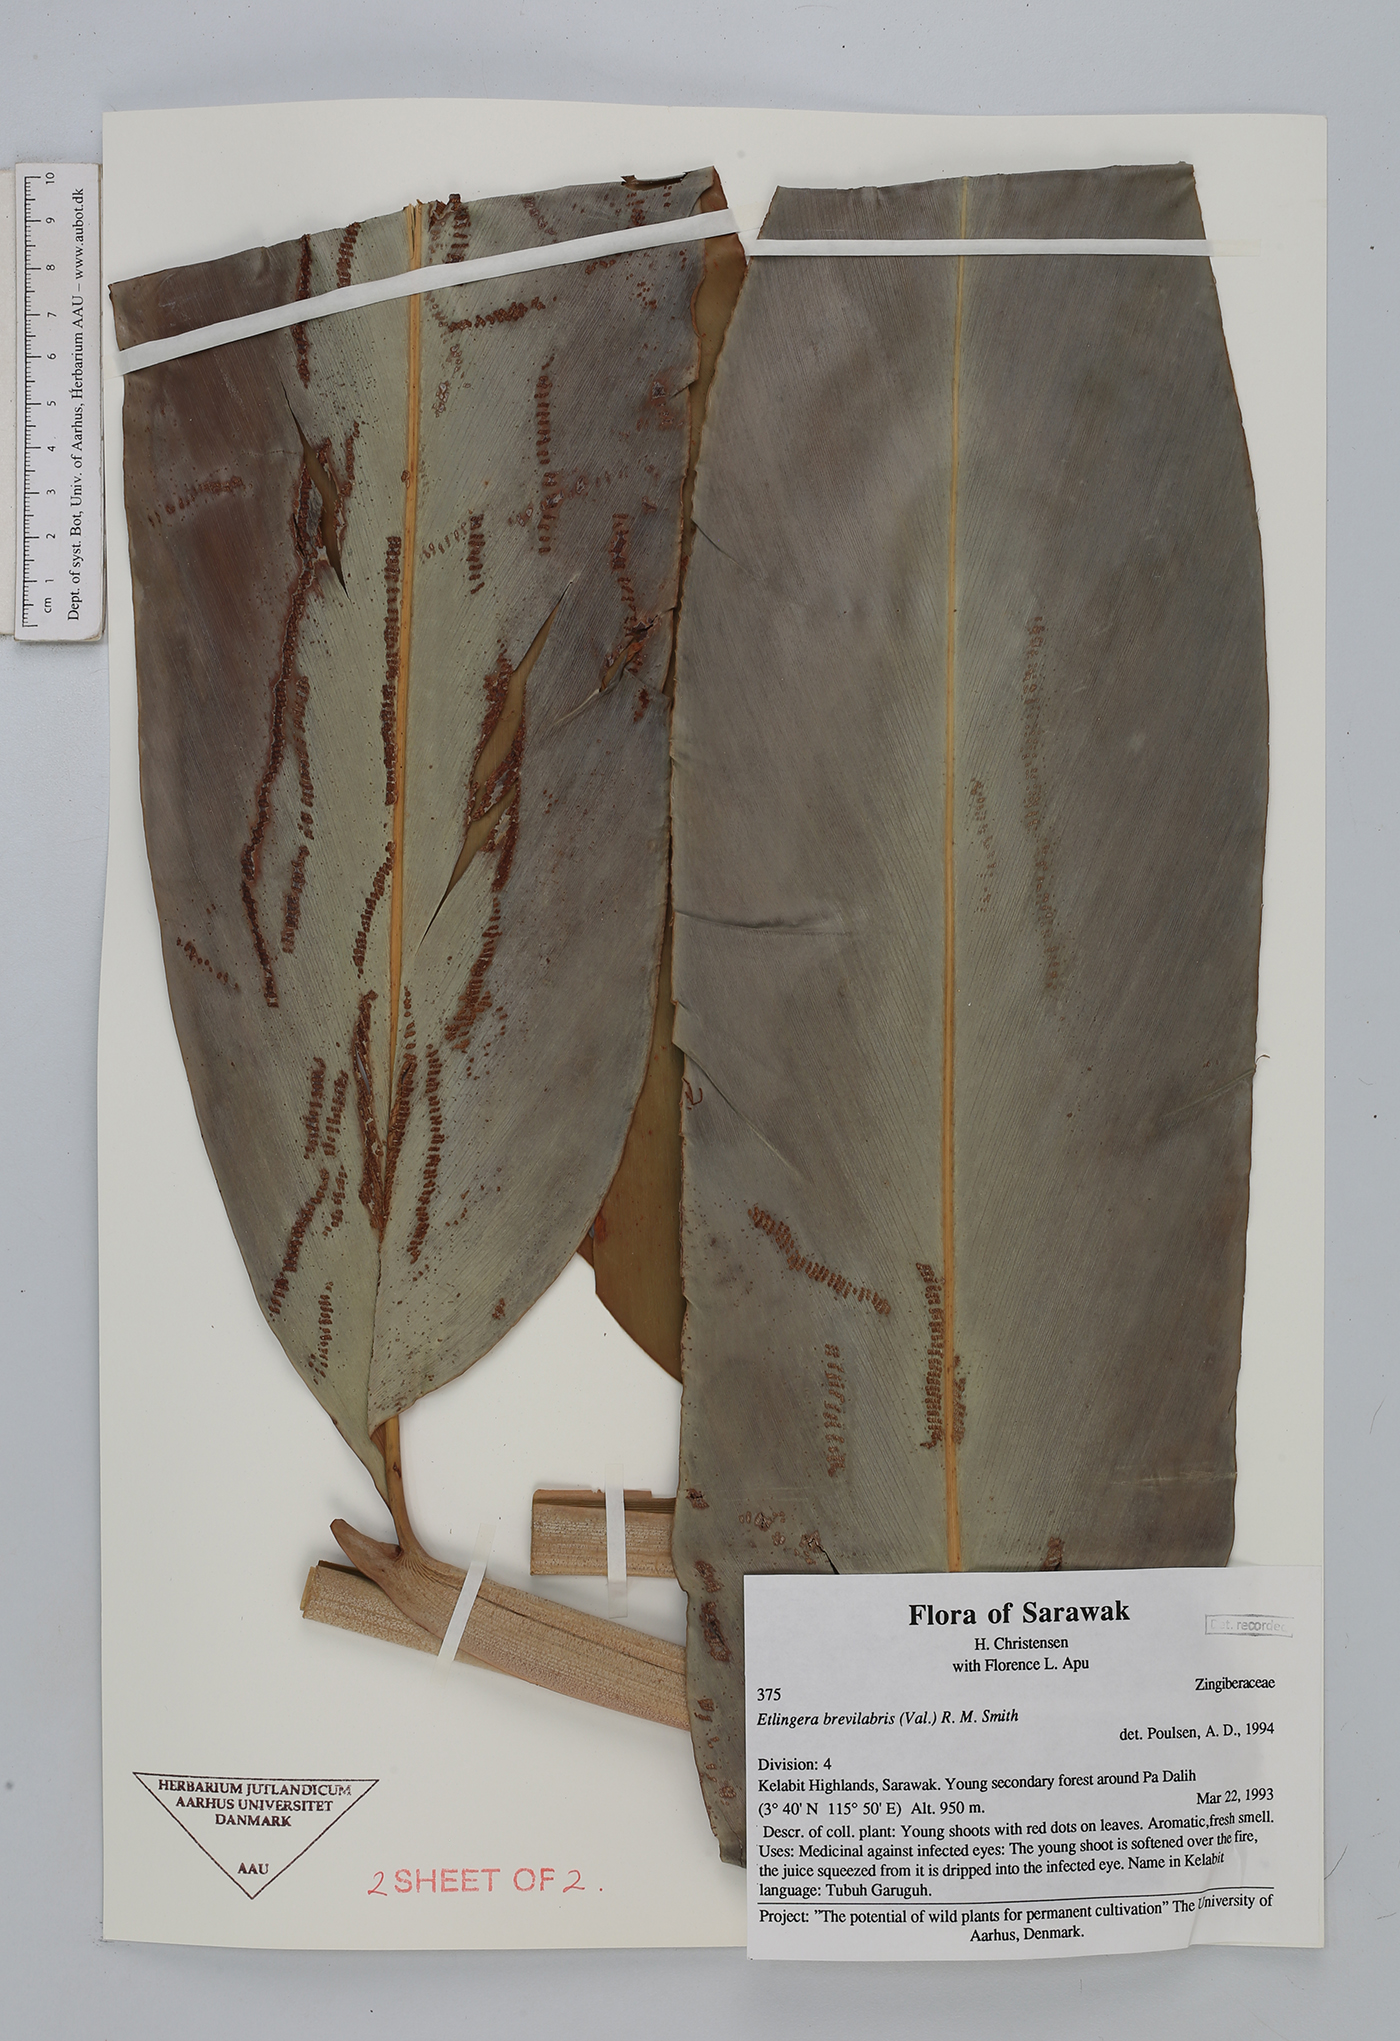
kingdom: Plantae
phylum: Tracheophyta
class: Liliopsida
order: Zingiberales
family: Zingiberaceae
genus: Etlingera
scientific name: Etlingera brevilabrum
